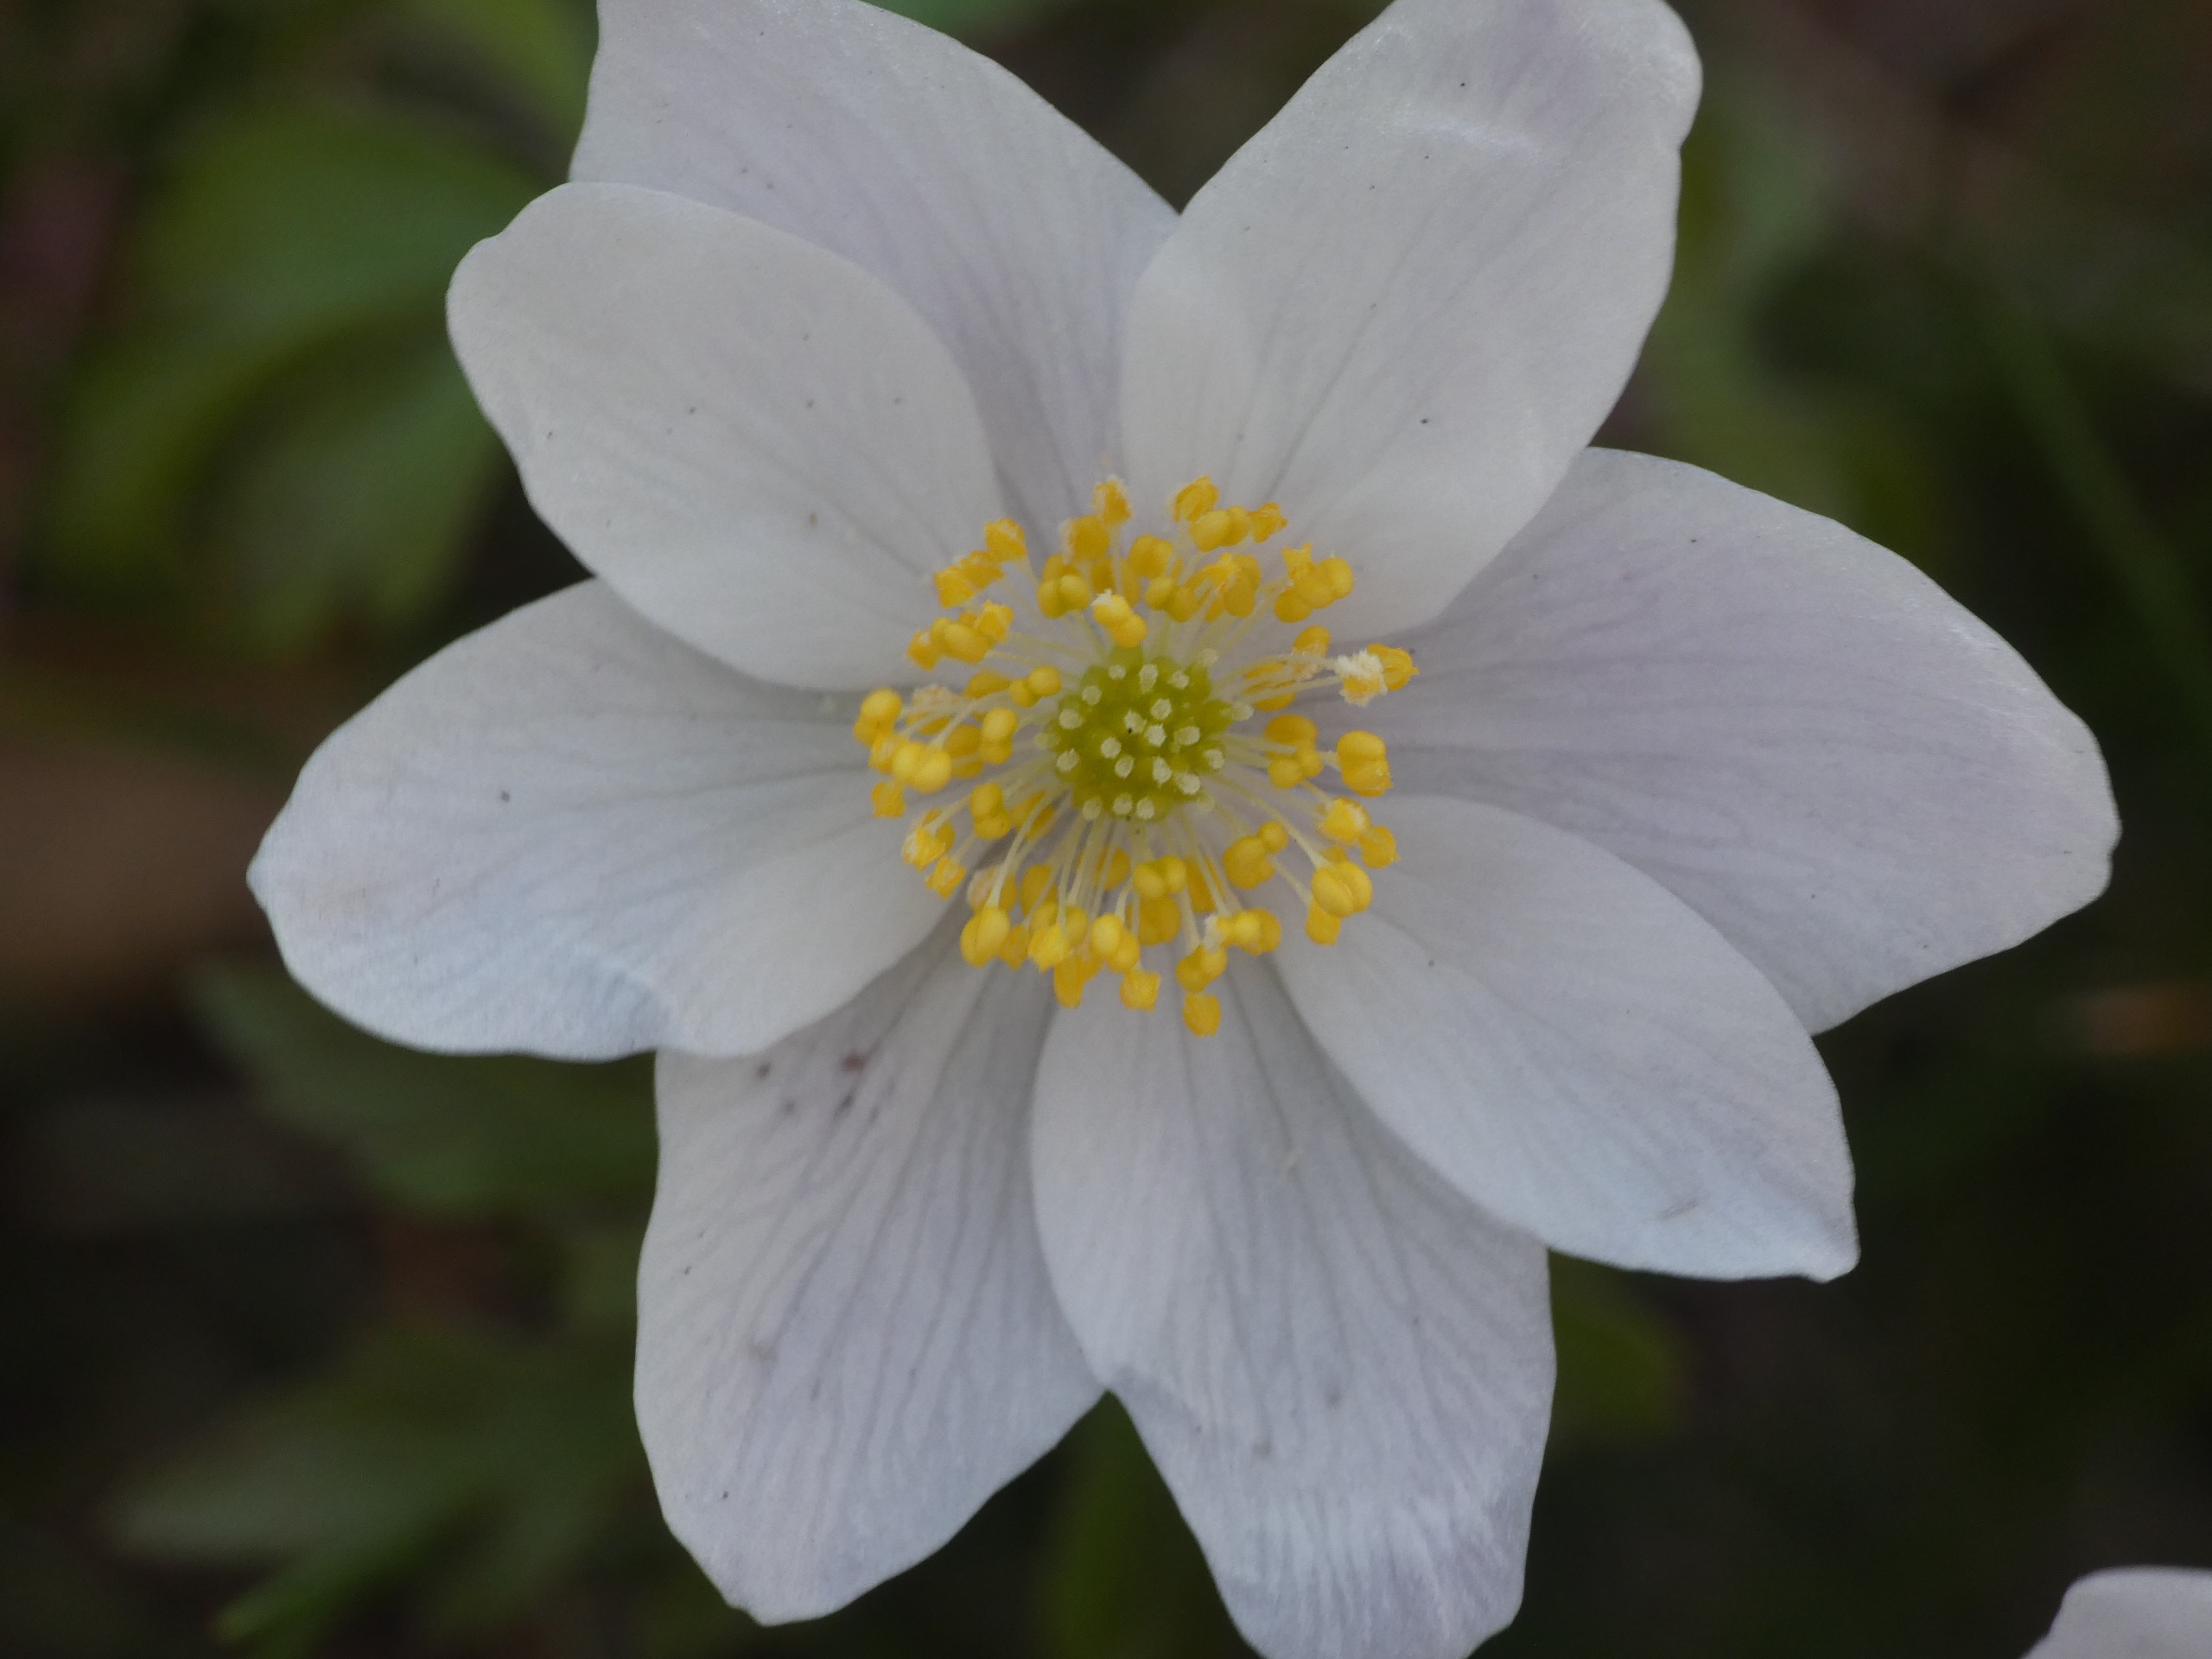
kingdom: Plantae
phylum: Tracheophyta
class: Magnoliopsida
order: Ranunculales
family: Ranunculaceae
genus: Anemone
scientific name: Anemone nemorosa
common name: Hvid anemone
